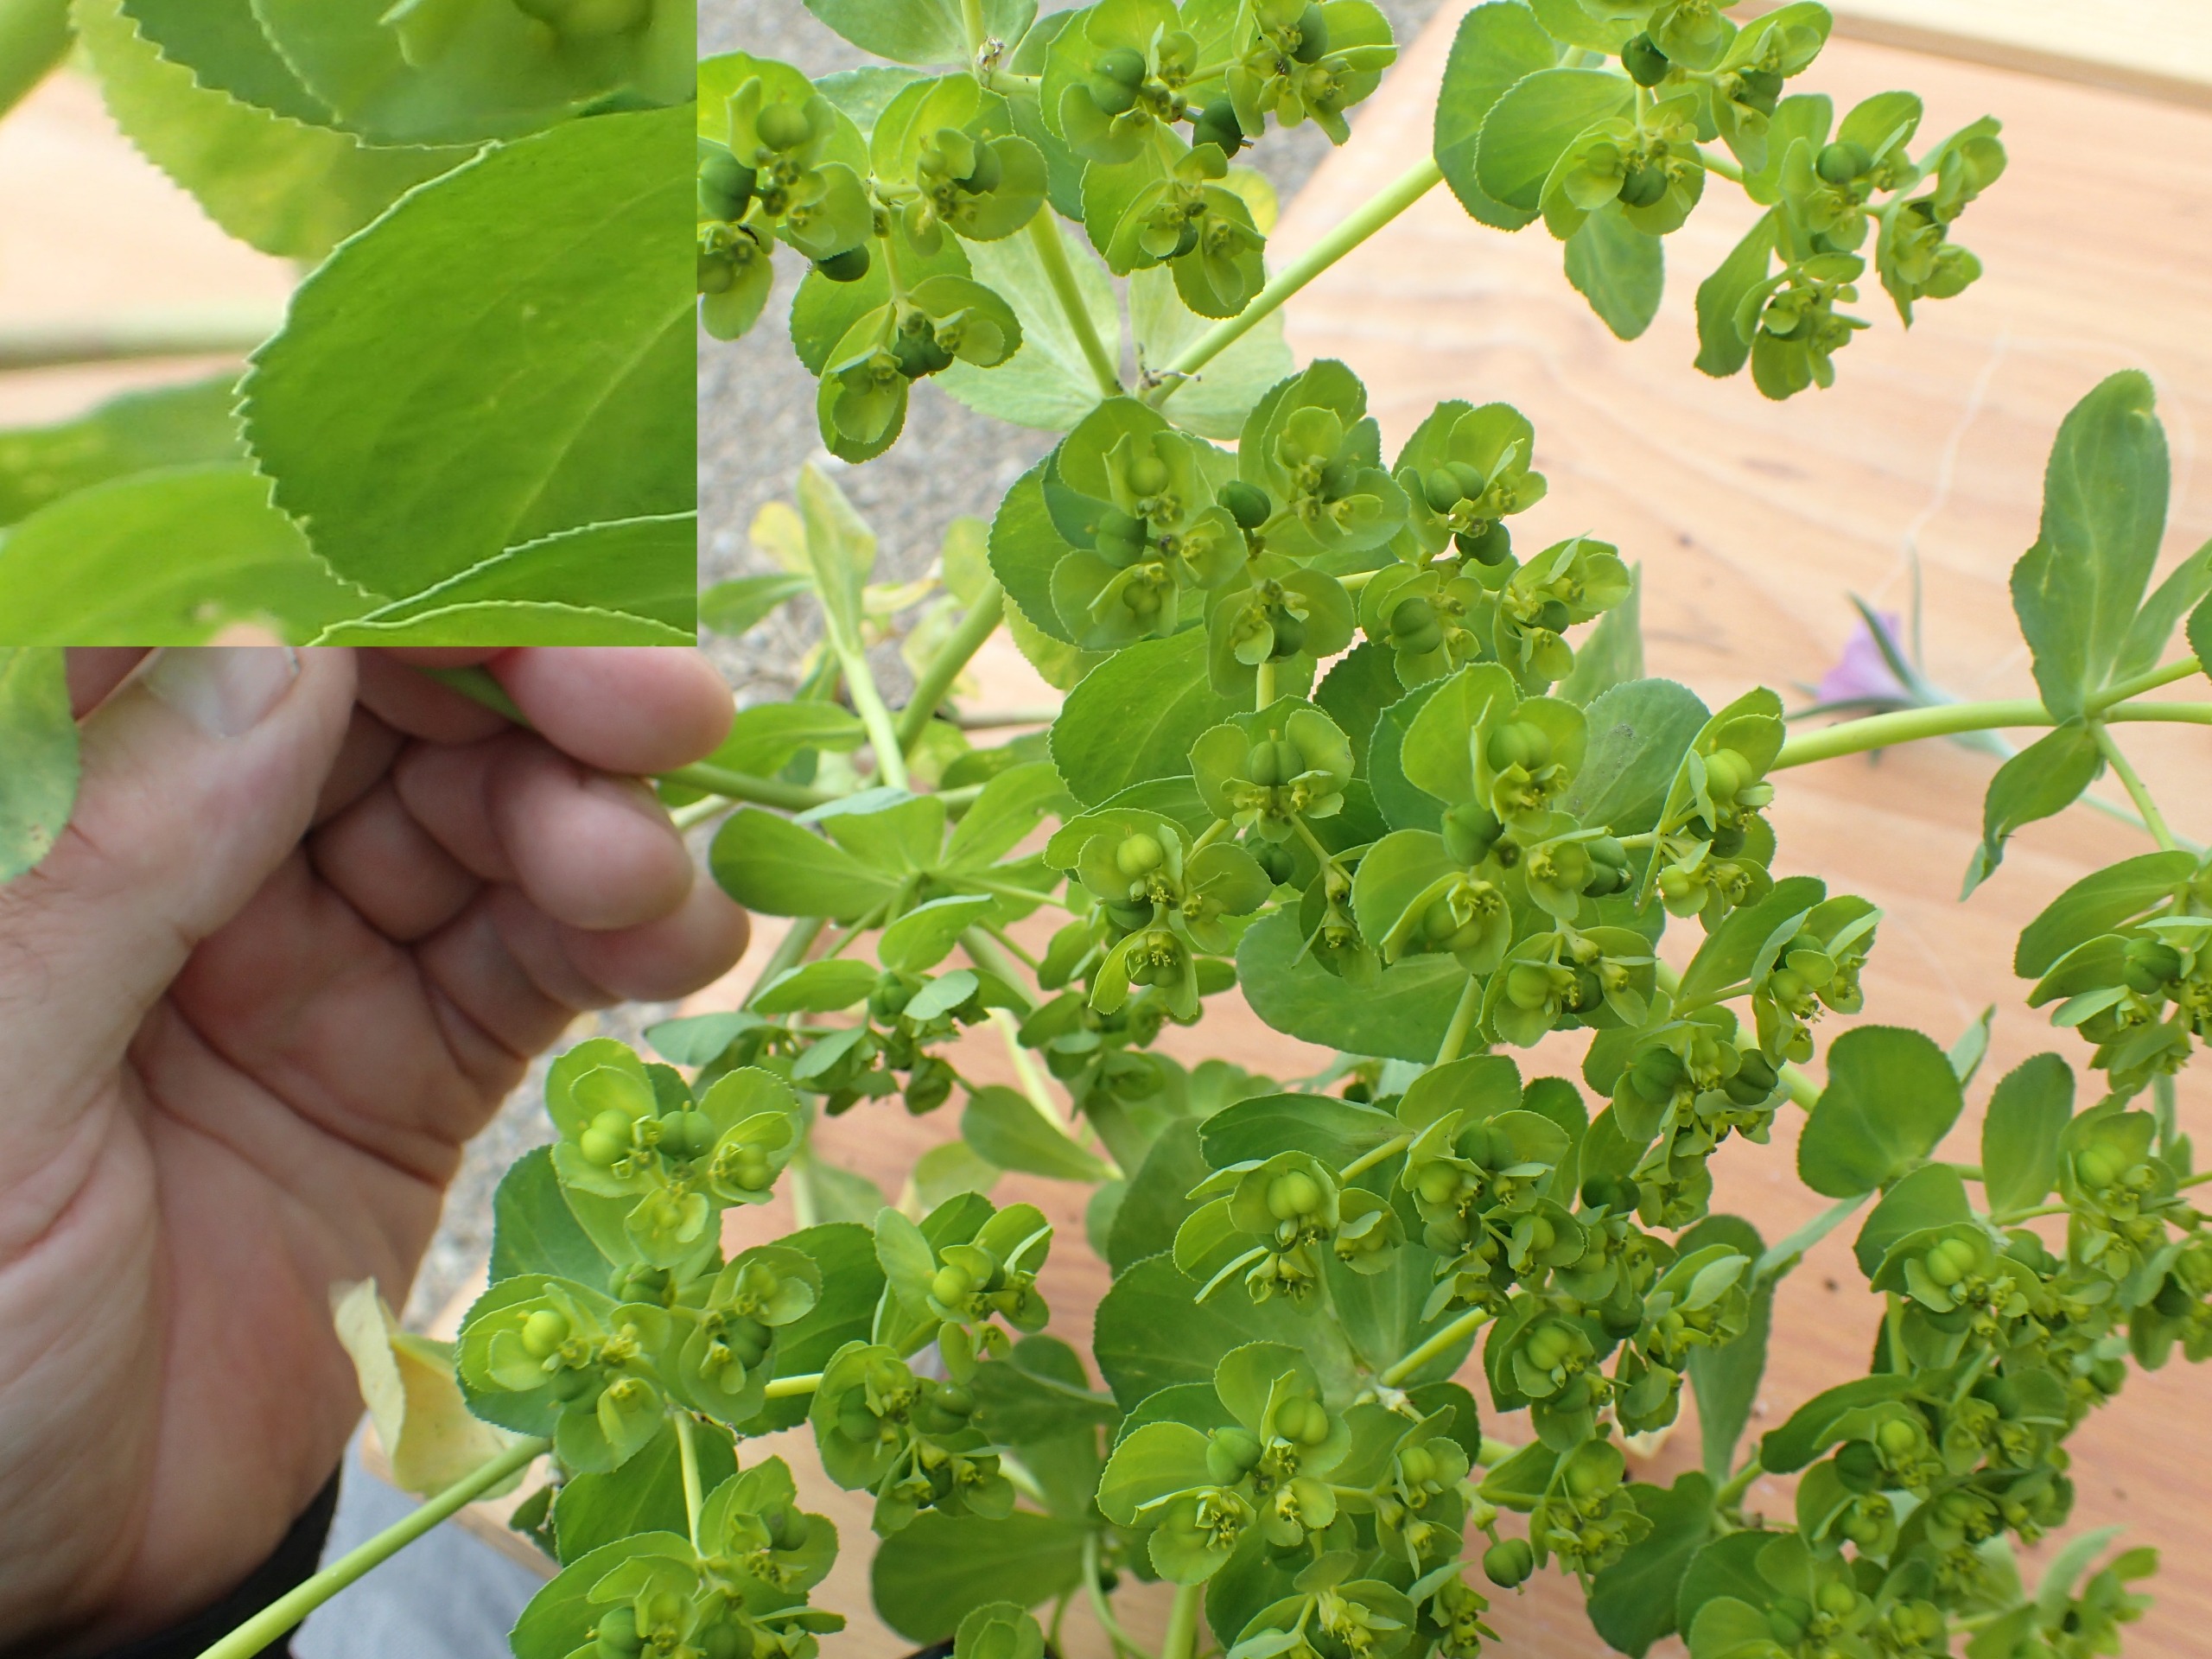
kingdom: Plantae
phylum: Tracheophyta
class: Magnoliopsida
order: Malpighiales
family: Euphorbiaceae
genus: Euphorbia
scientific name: Euphorbia helioscopia
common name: Skærm-vortemælk
